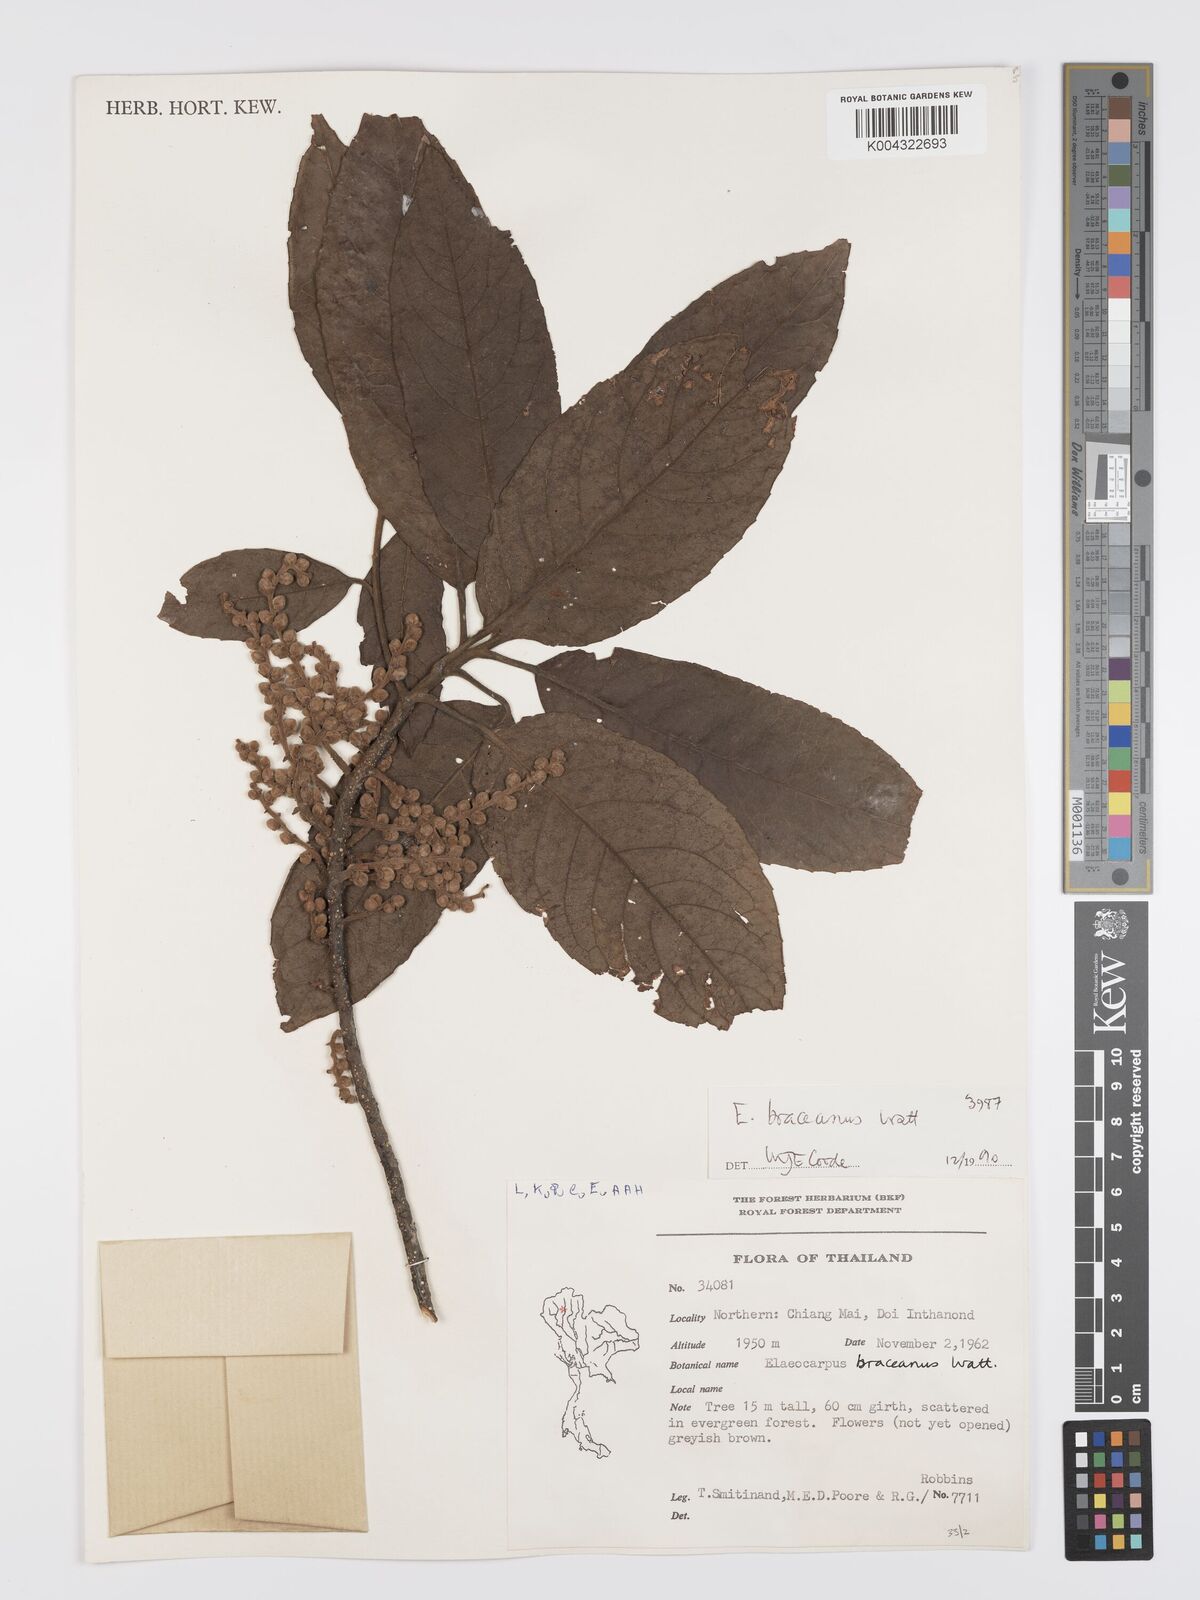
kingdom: Plantae
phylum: Tracheophyta
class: Magnoliopsida
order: Oxalidales
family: Elaeocarpaceae
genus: Elaeocarpus
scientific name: Elaeocarpus braceanus
